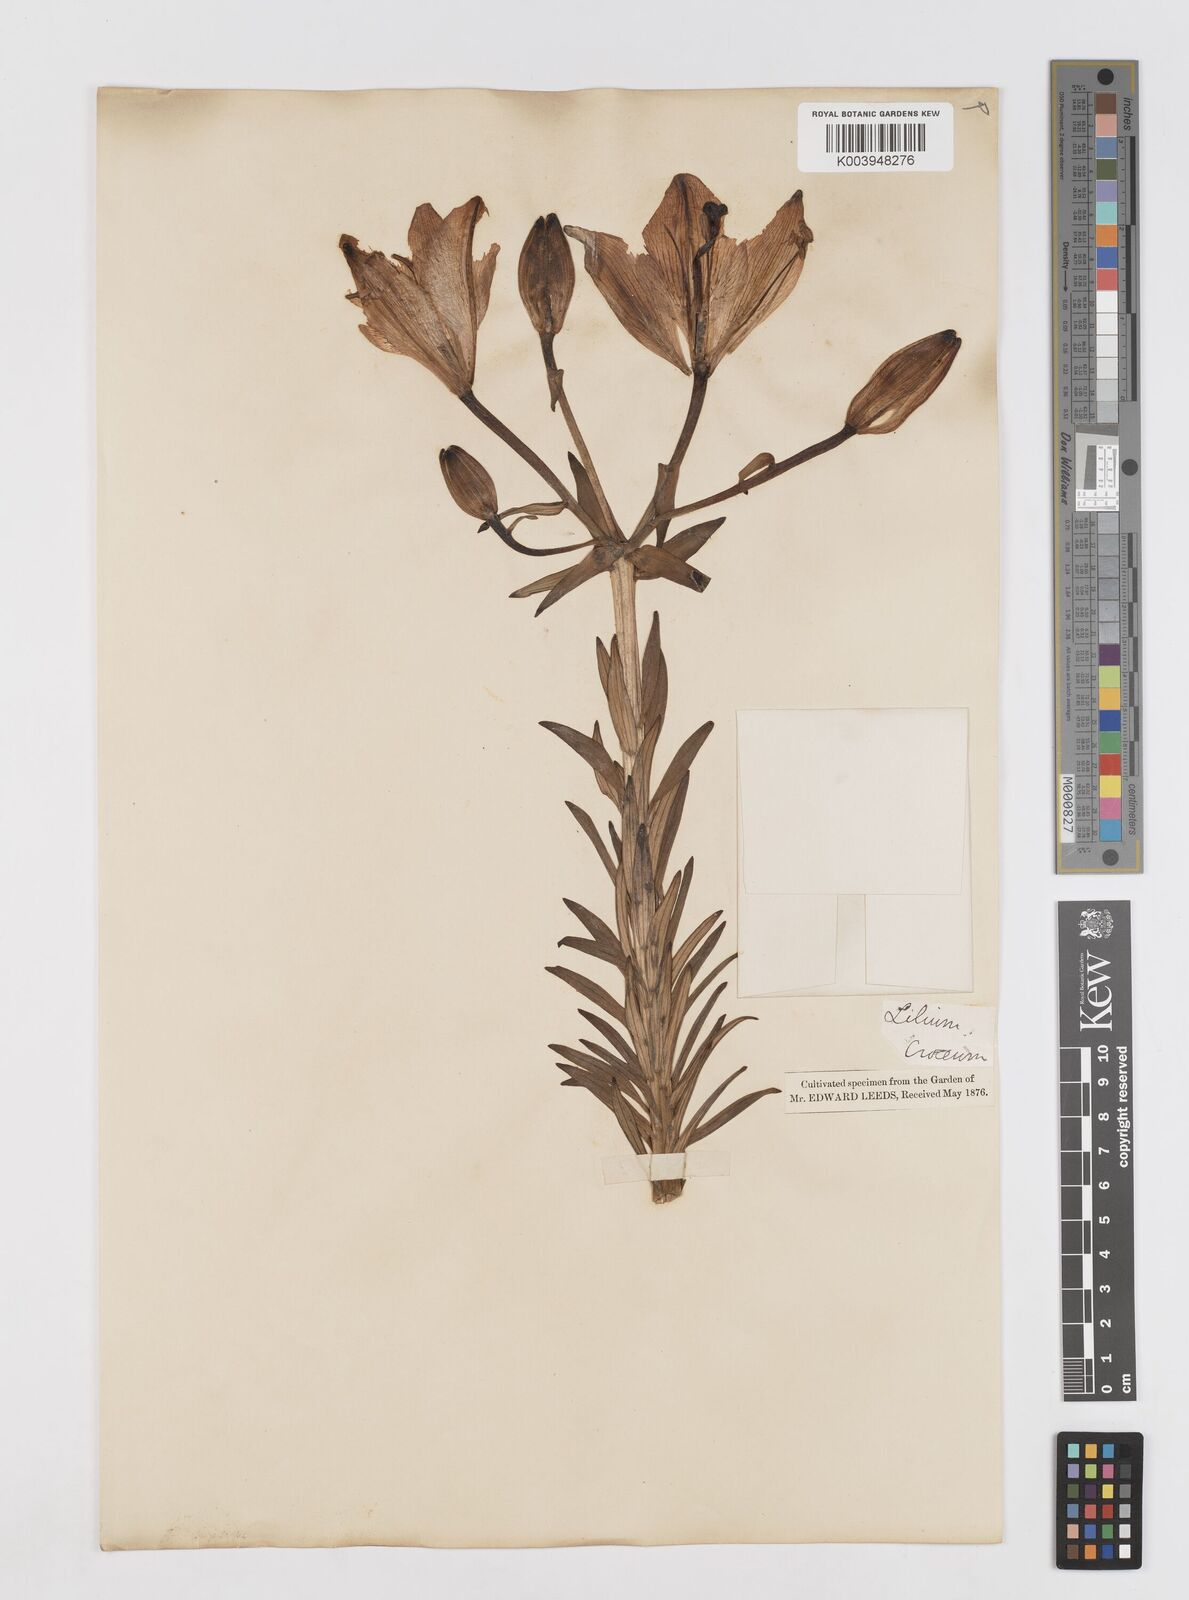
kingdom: Plantae
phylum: Tracheophyta
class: Liliopsida
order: Liliales
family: Liliaceae
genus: Lilium
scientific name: Lilium bulbiferum
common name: Orange lily
